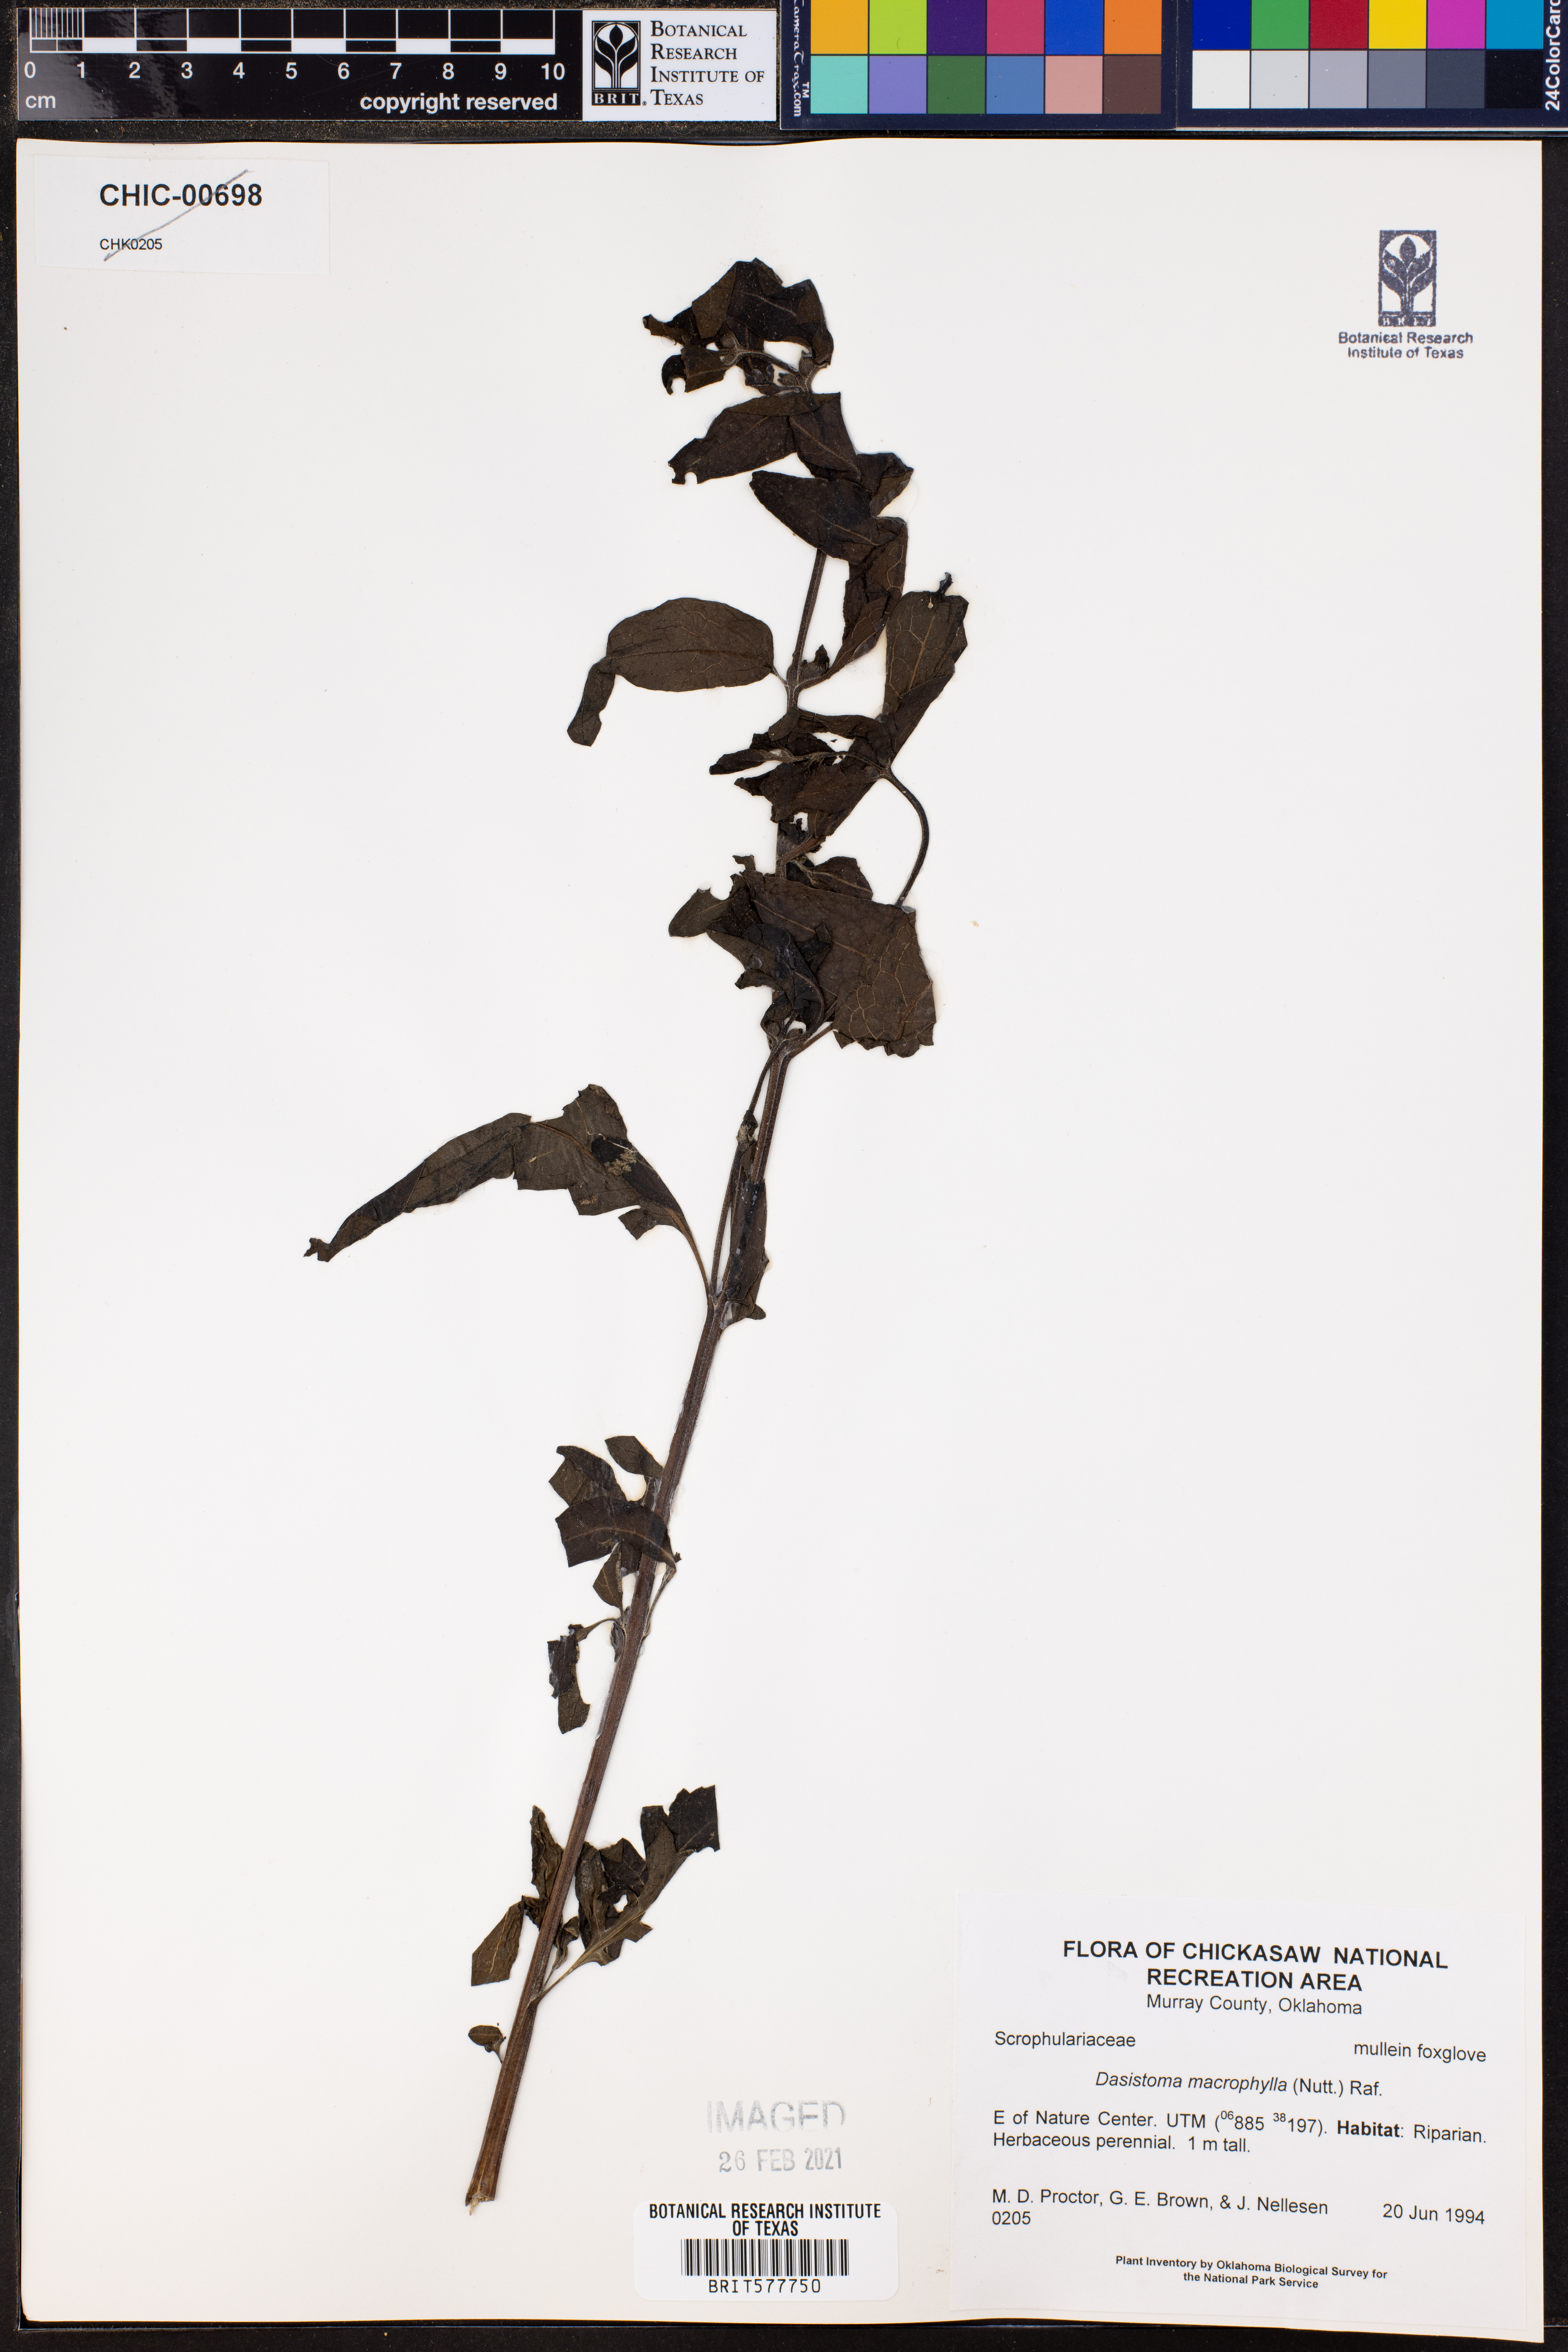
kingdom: Plantae
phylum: Tracheophyta
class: Magnoliopsida
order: Lamiales
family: Orobanchaceae
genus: Dasistoma
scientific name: Dasistoma macrophyllum
